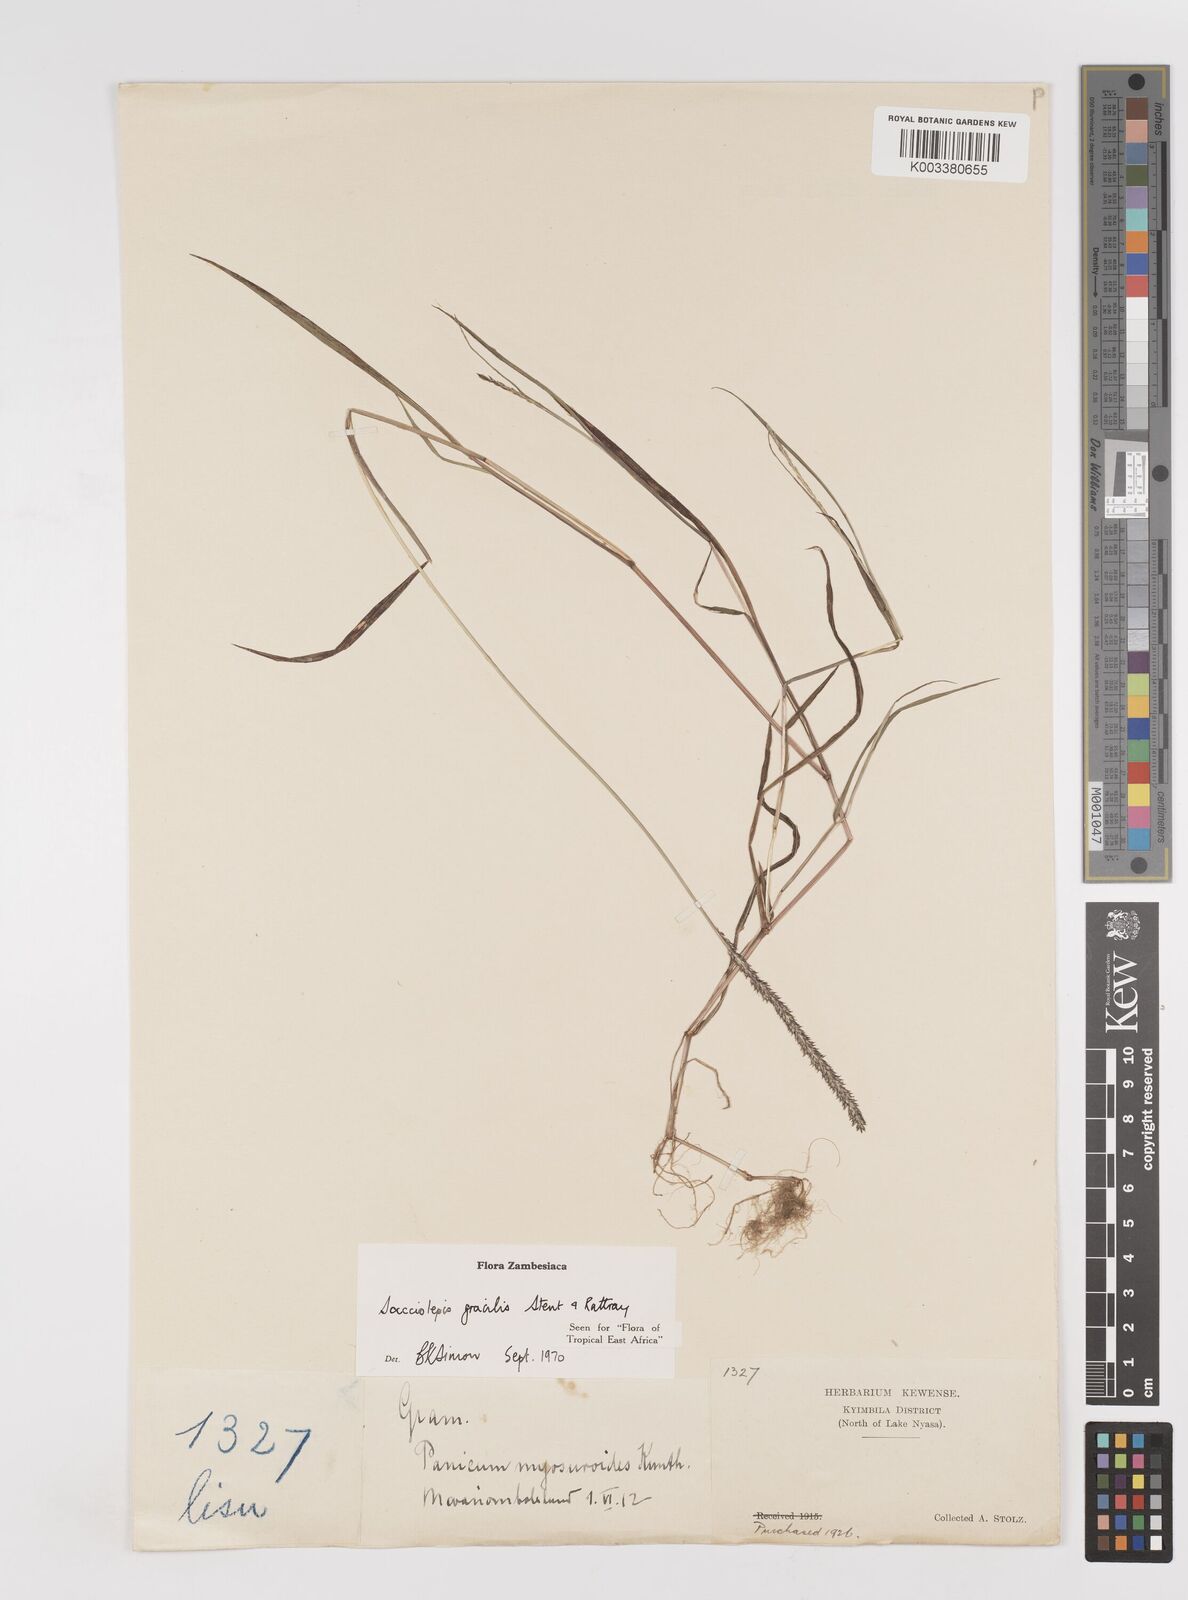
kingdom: Plantae
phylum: Tracheophyta
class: Liliopsida
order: Poales
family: Poaceae
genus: Sacciolepis
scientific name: Sacciolepis indica
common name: Glenwoodgrass
